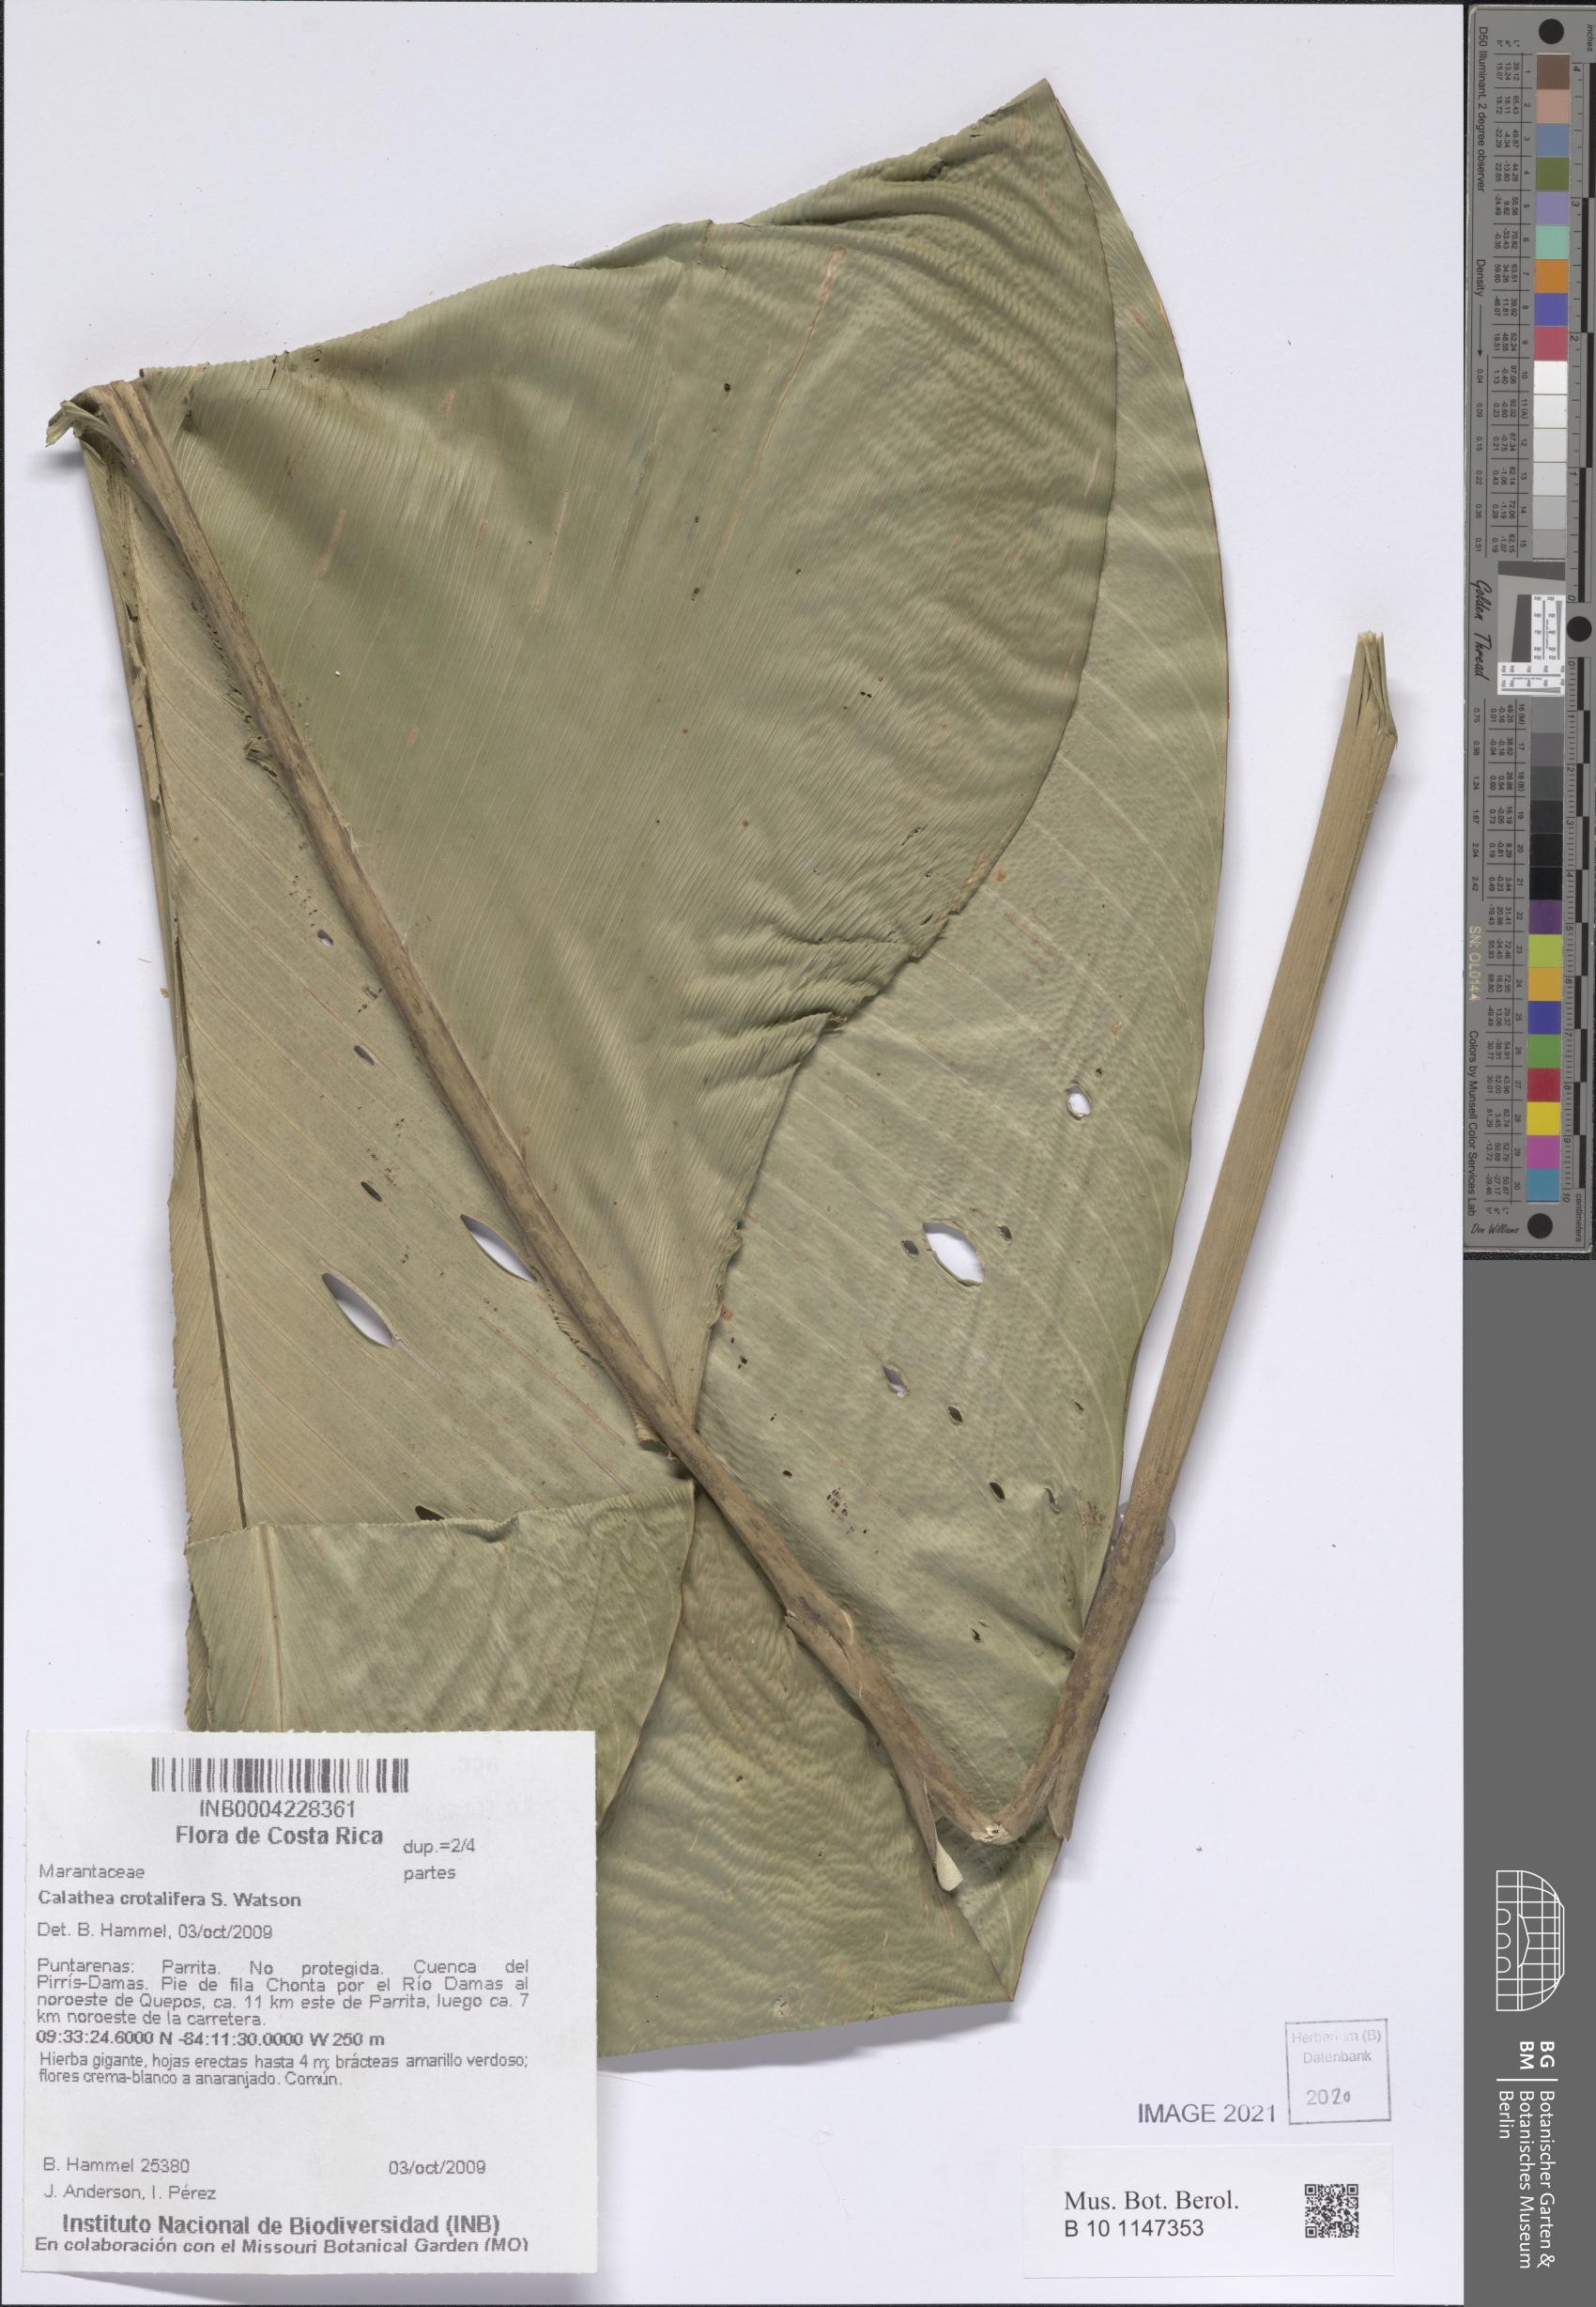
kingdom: Plantae
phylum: Tracheophyta
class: Liliopsida
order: Zingiberales
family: Marantaceae
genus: Calathea
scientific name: Calathea crotalifera
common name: Rattlesnake plant
